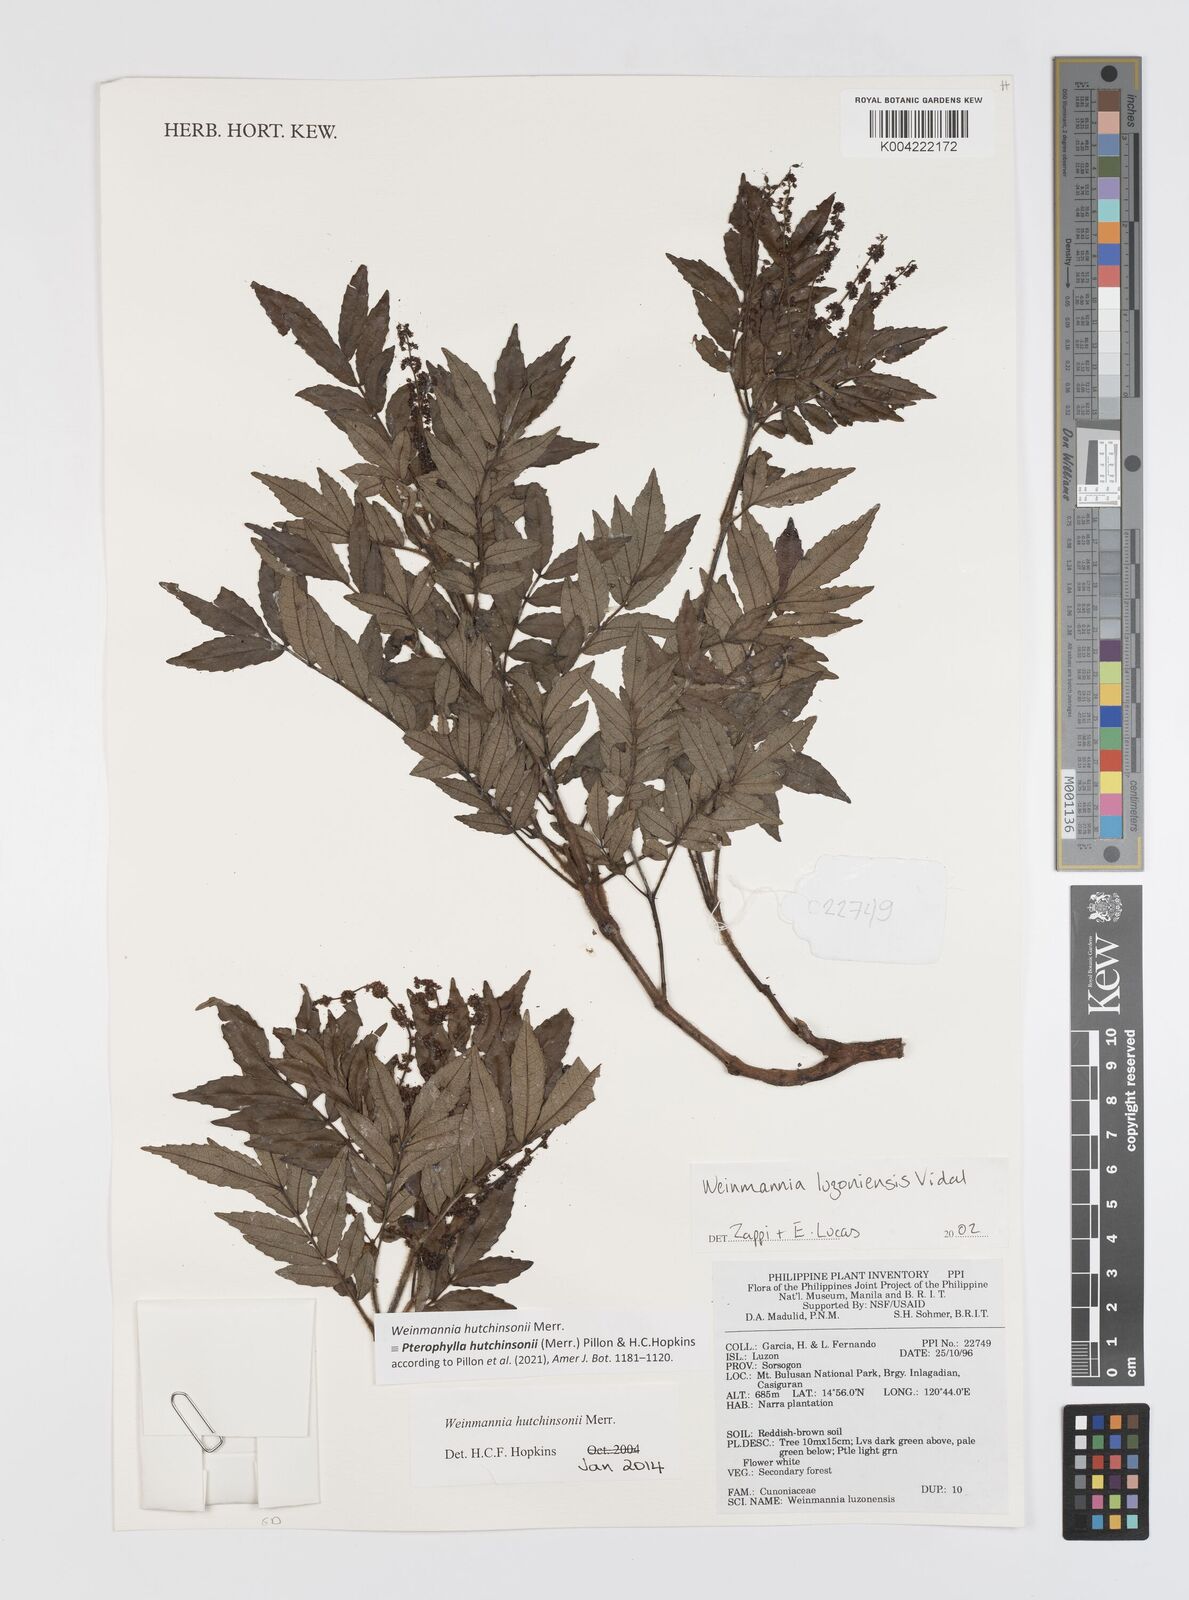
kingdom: Plantae
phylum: Tracheophyta
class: Magnoliopsida
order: Oxalidales
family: Cunoniaceae
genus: Pterophylla
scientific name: Pterophylla hutchinsonii
